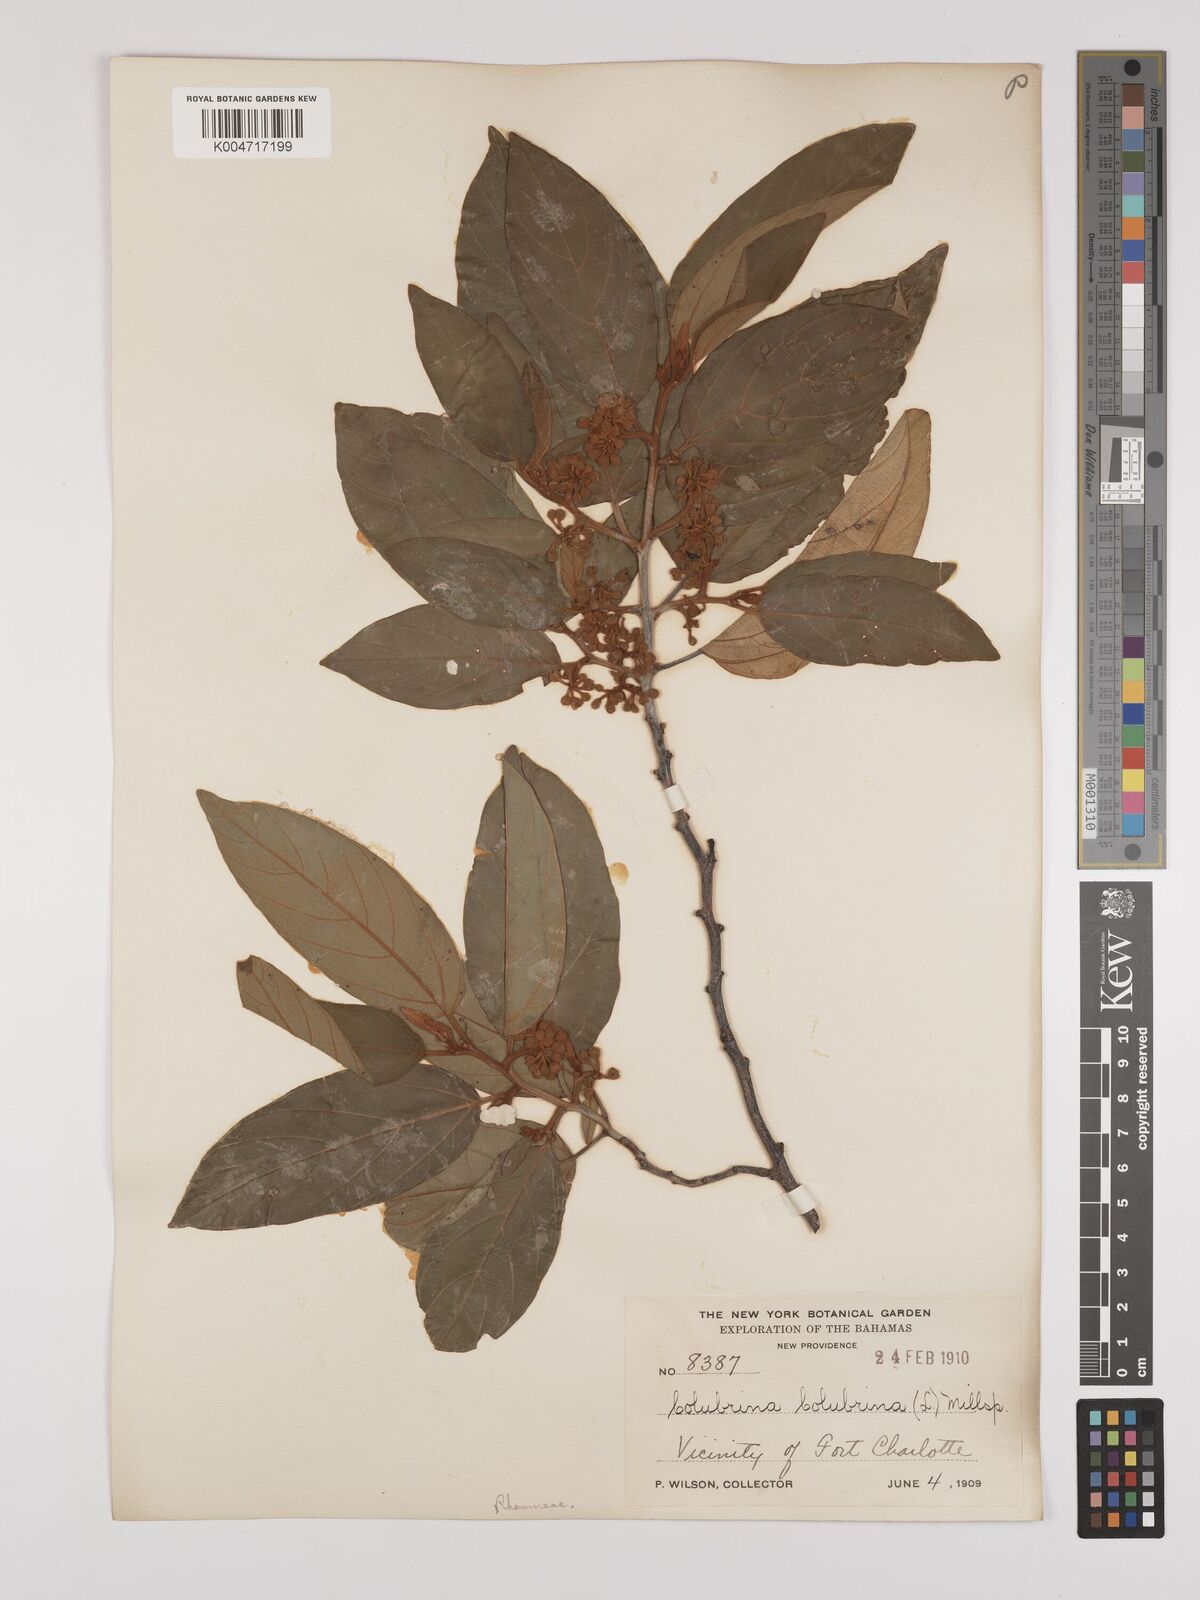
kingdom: Plantae
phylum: Tracheophyta
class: Magnoliopsida
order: Rosales
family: Rhamnaceae
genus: Colubrina
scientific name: Colubrina arborescens
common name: Wild coffee
